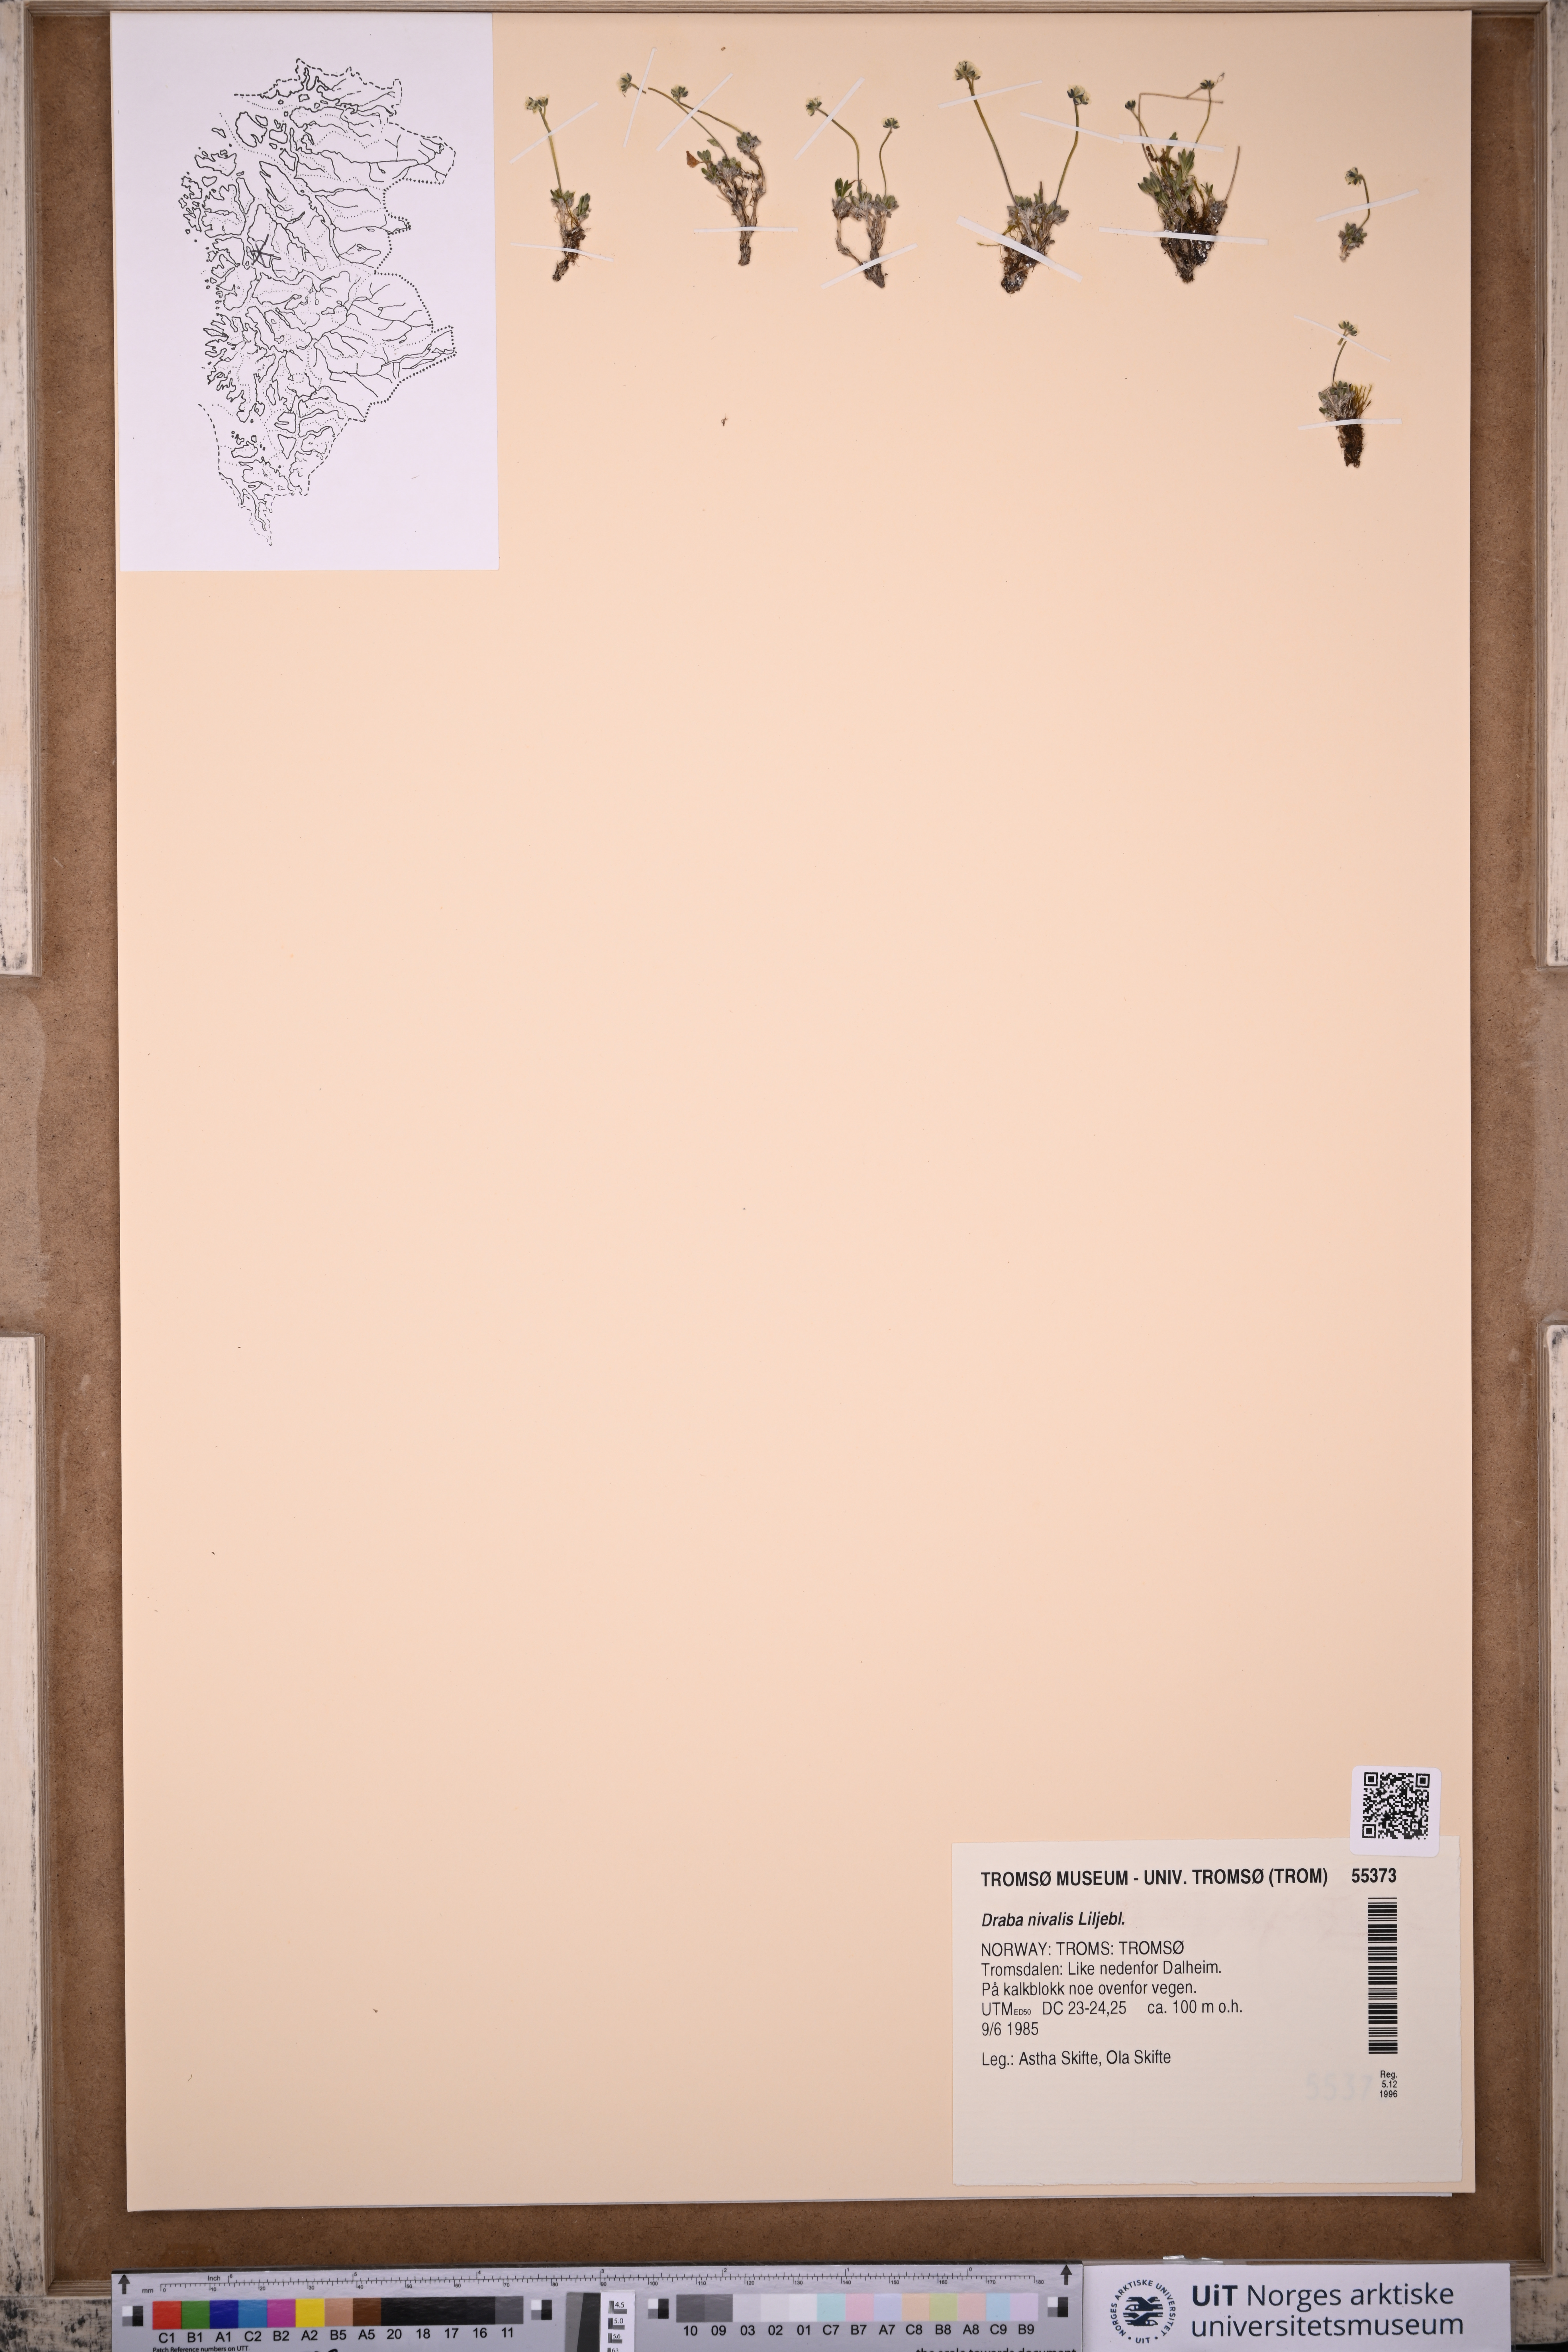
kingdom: Plantae
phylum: Tracheophyta
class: Magnoliopsida
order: Brassicales
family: Brassicaceae
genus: Draba
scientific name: Draba nivalis
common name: Snow draba
